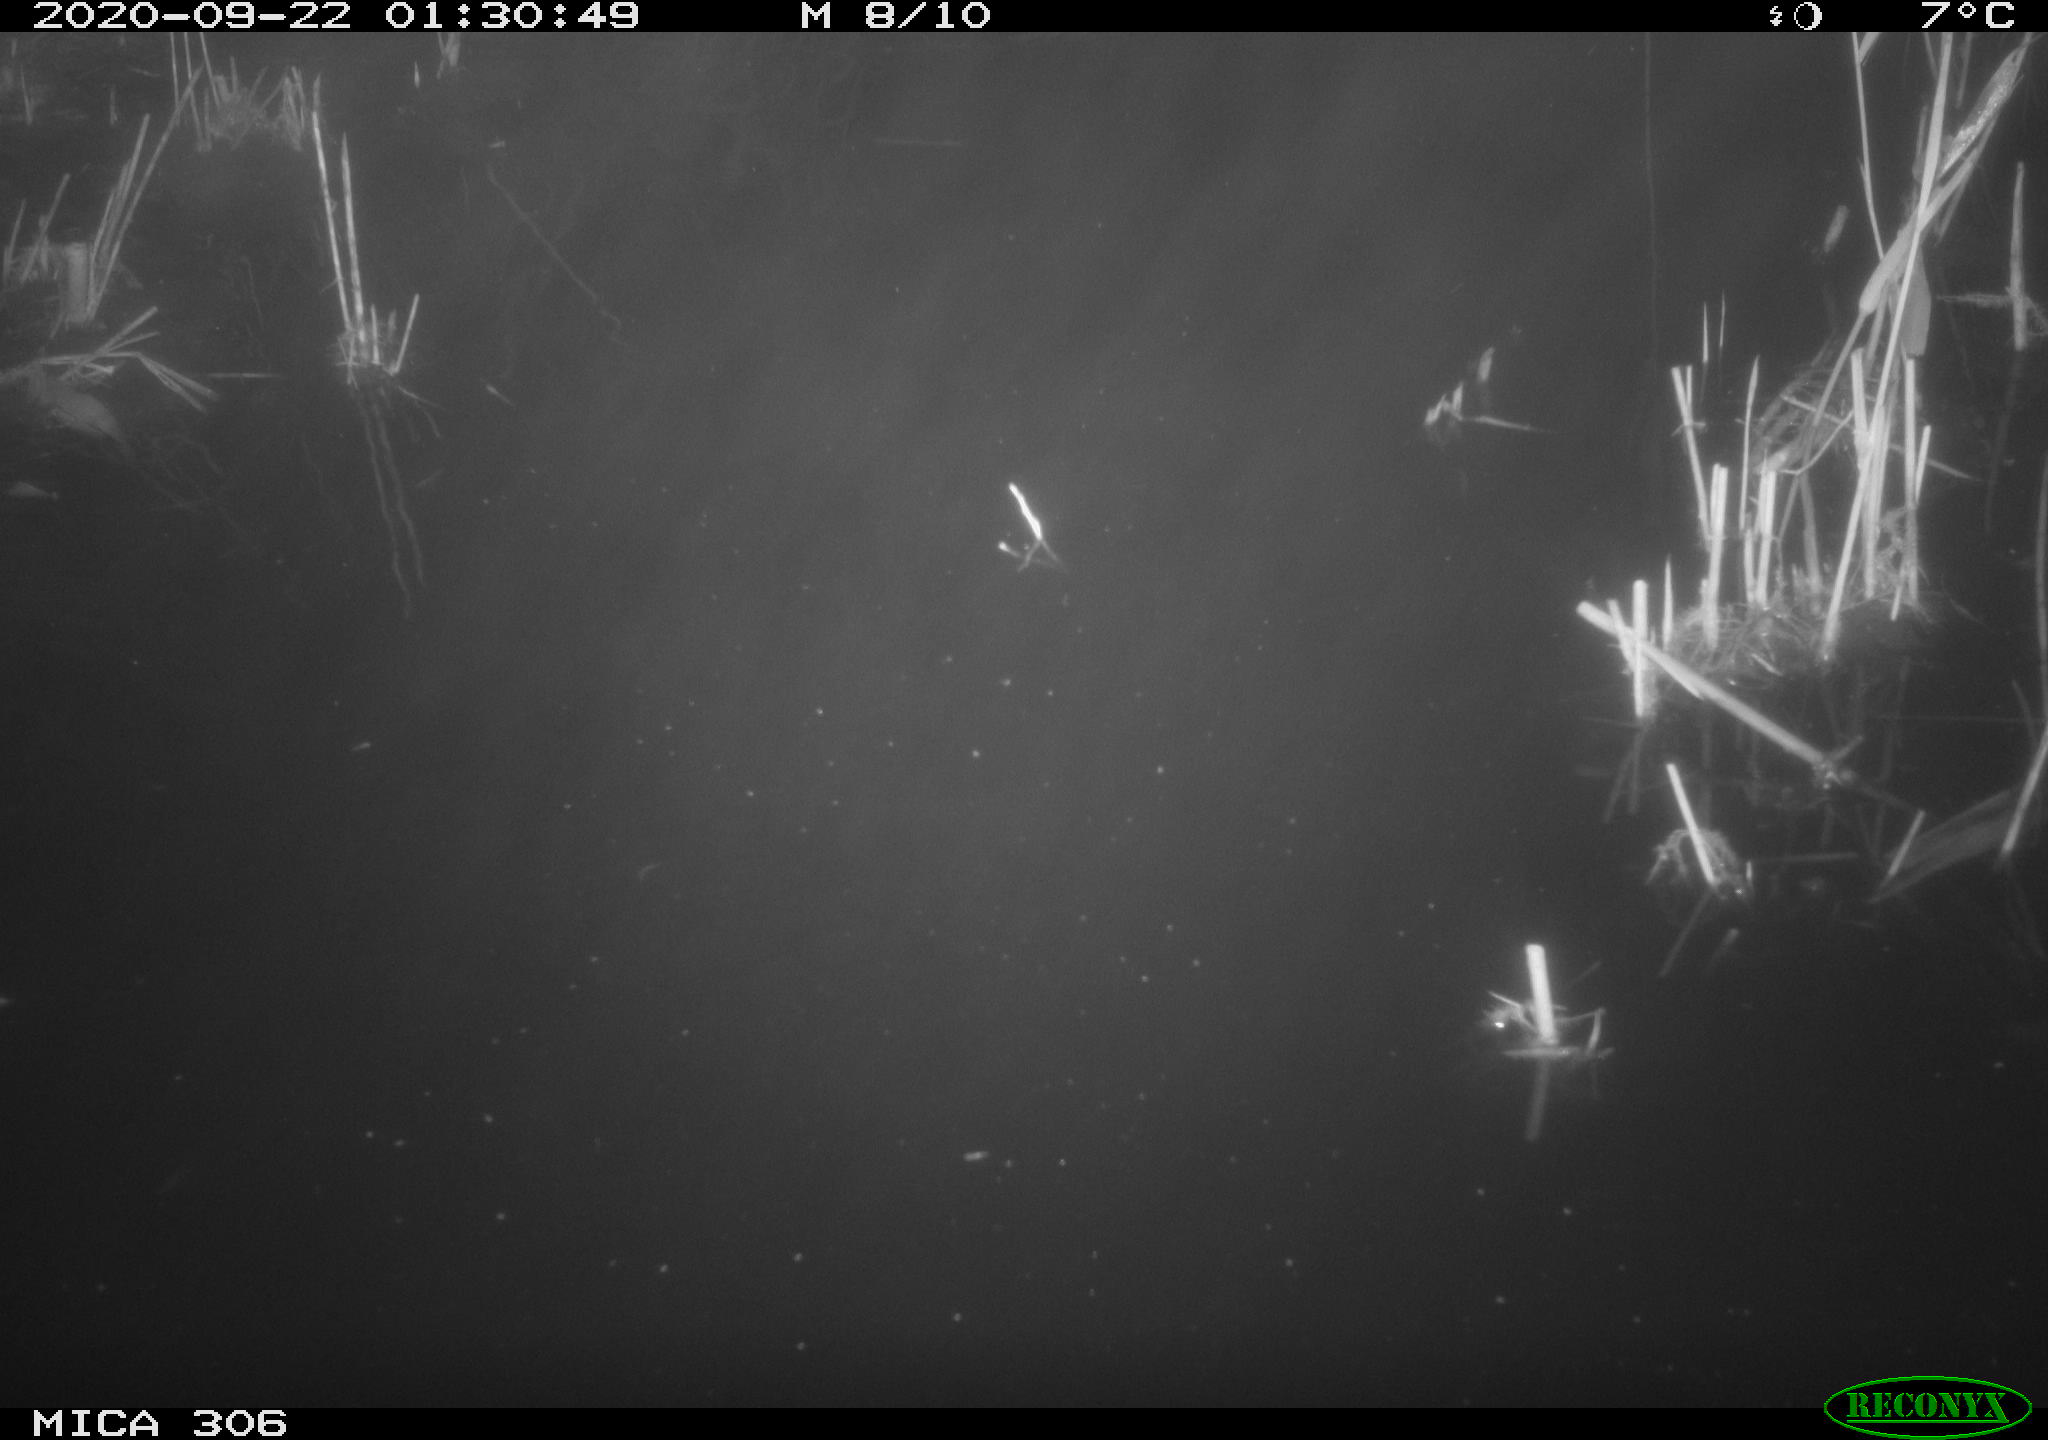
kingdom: Animalia
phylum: Chordata
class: Mammalia
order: Rodentia
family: Muridae
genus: Rattus
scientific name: Rattus norvegicus
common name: Brown rat
